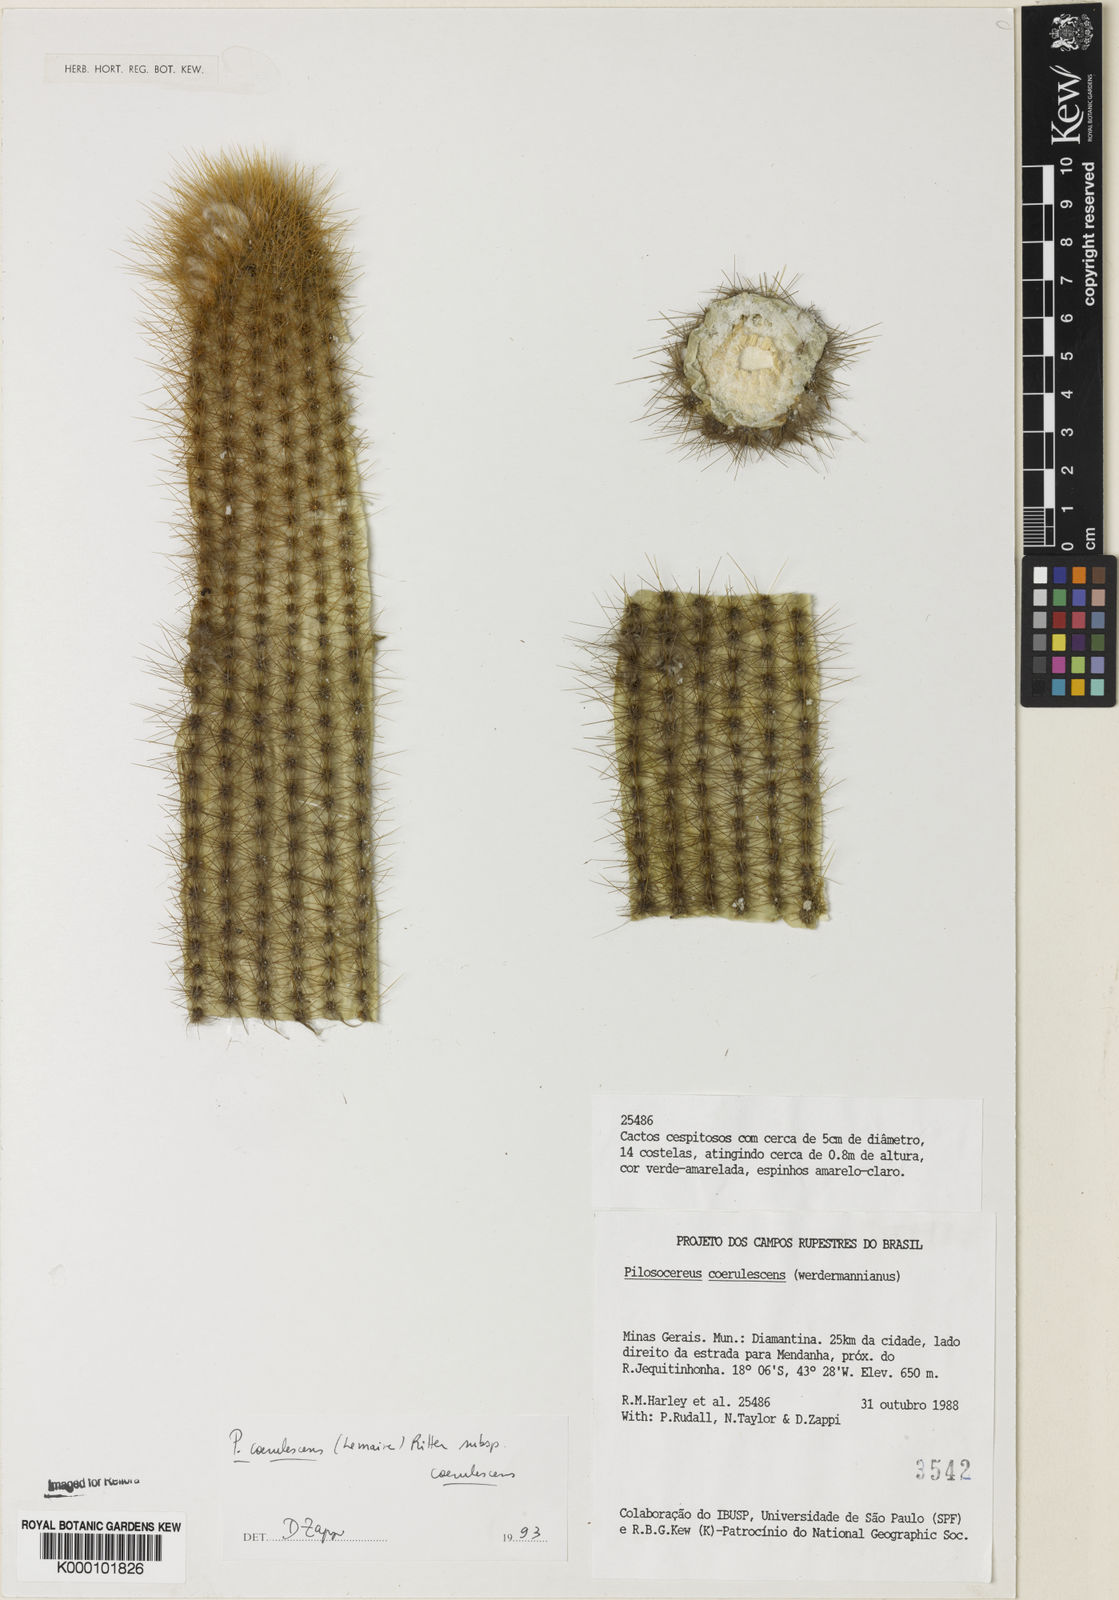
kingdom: Plantae
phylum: Tracheophyta
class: Magnoliopsida
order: Caryophyllales
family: Cactaceae
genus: Pilosocereus
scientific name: Pilosocereus aurisetus
